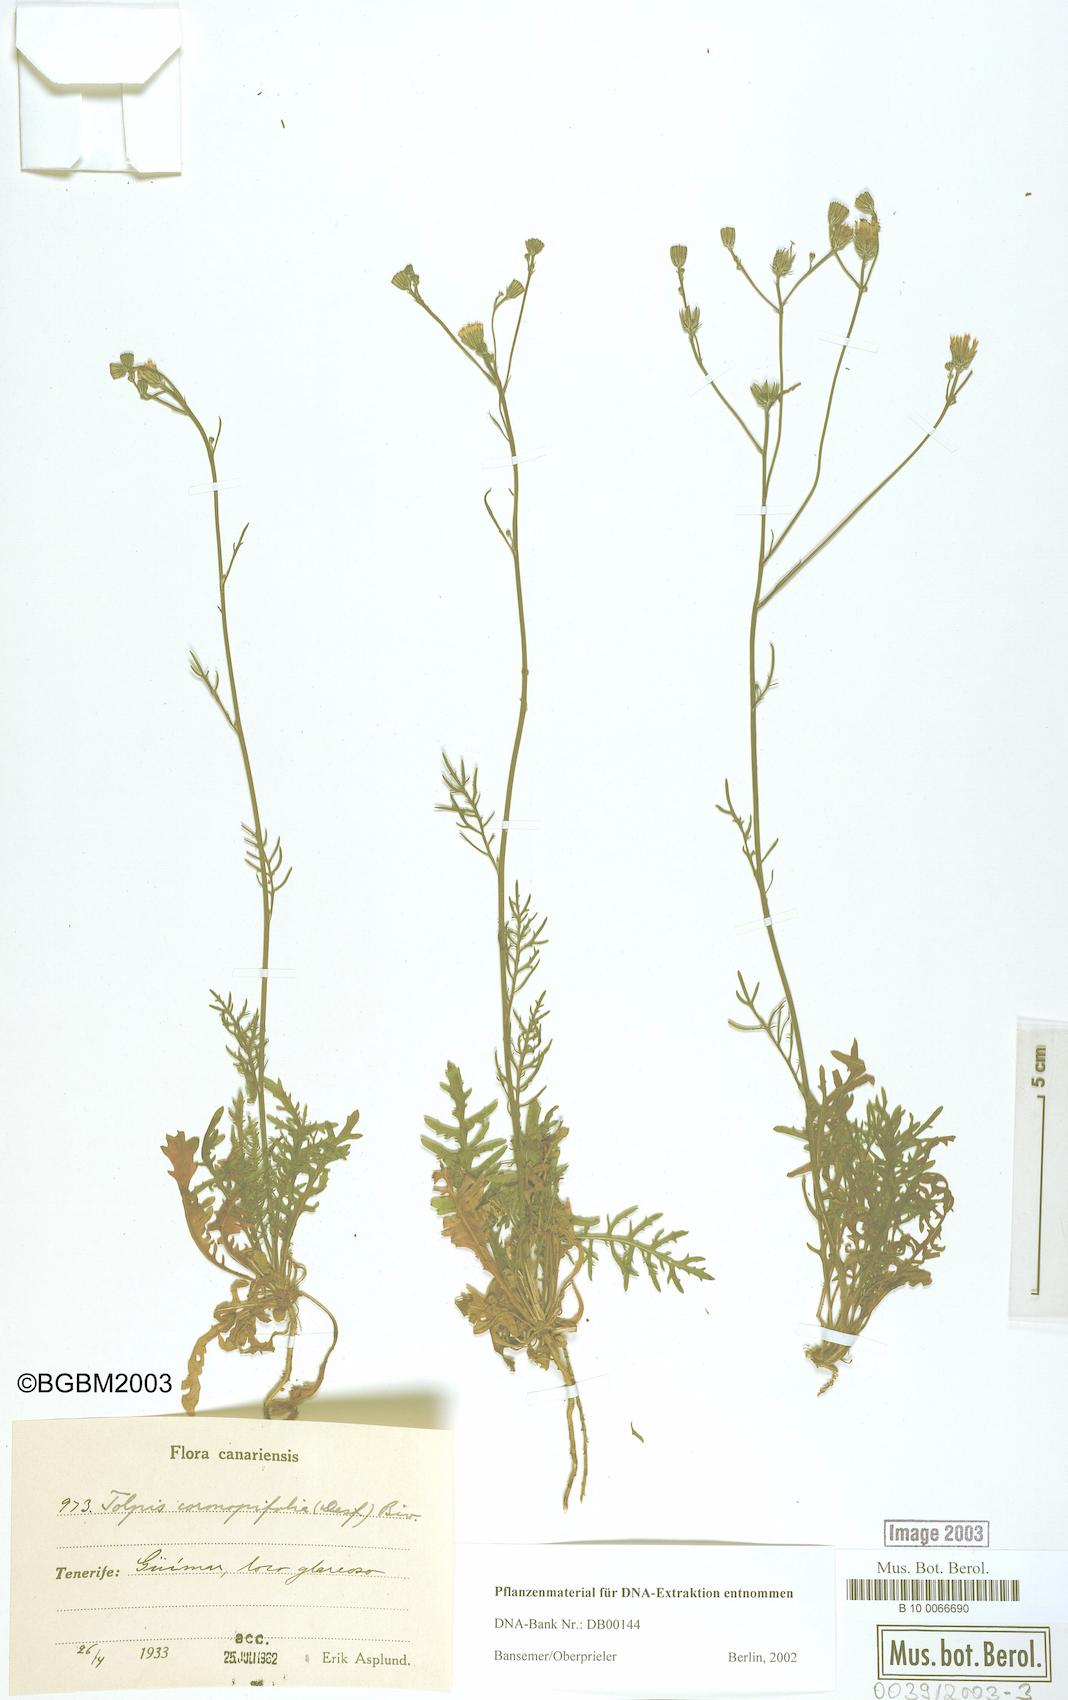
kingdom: Plantae
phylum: Tracheophyta
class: Magnoliopsida
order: Asterales
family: Asteraceae
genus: Tolpis
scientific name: Tolpis coronopifolia
